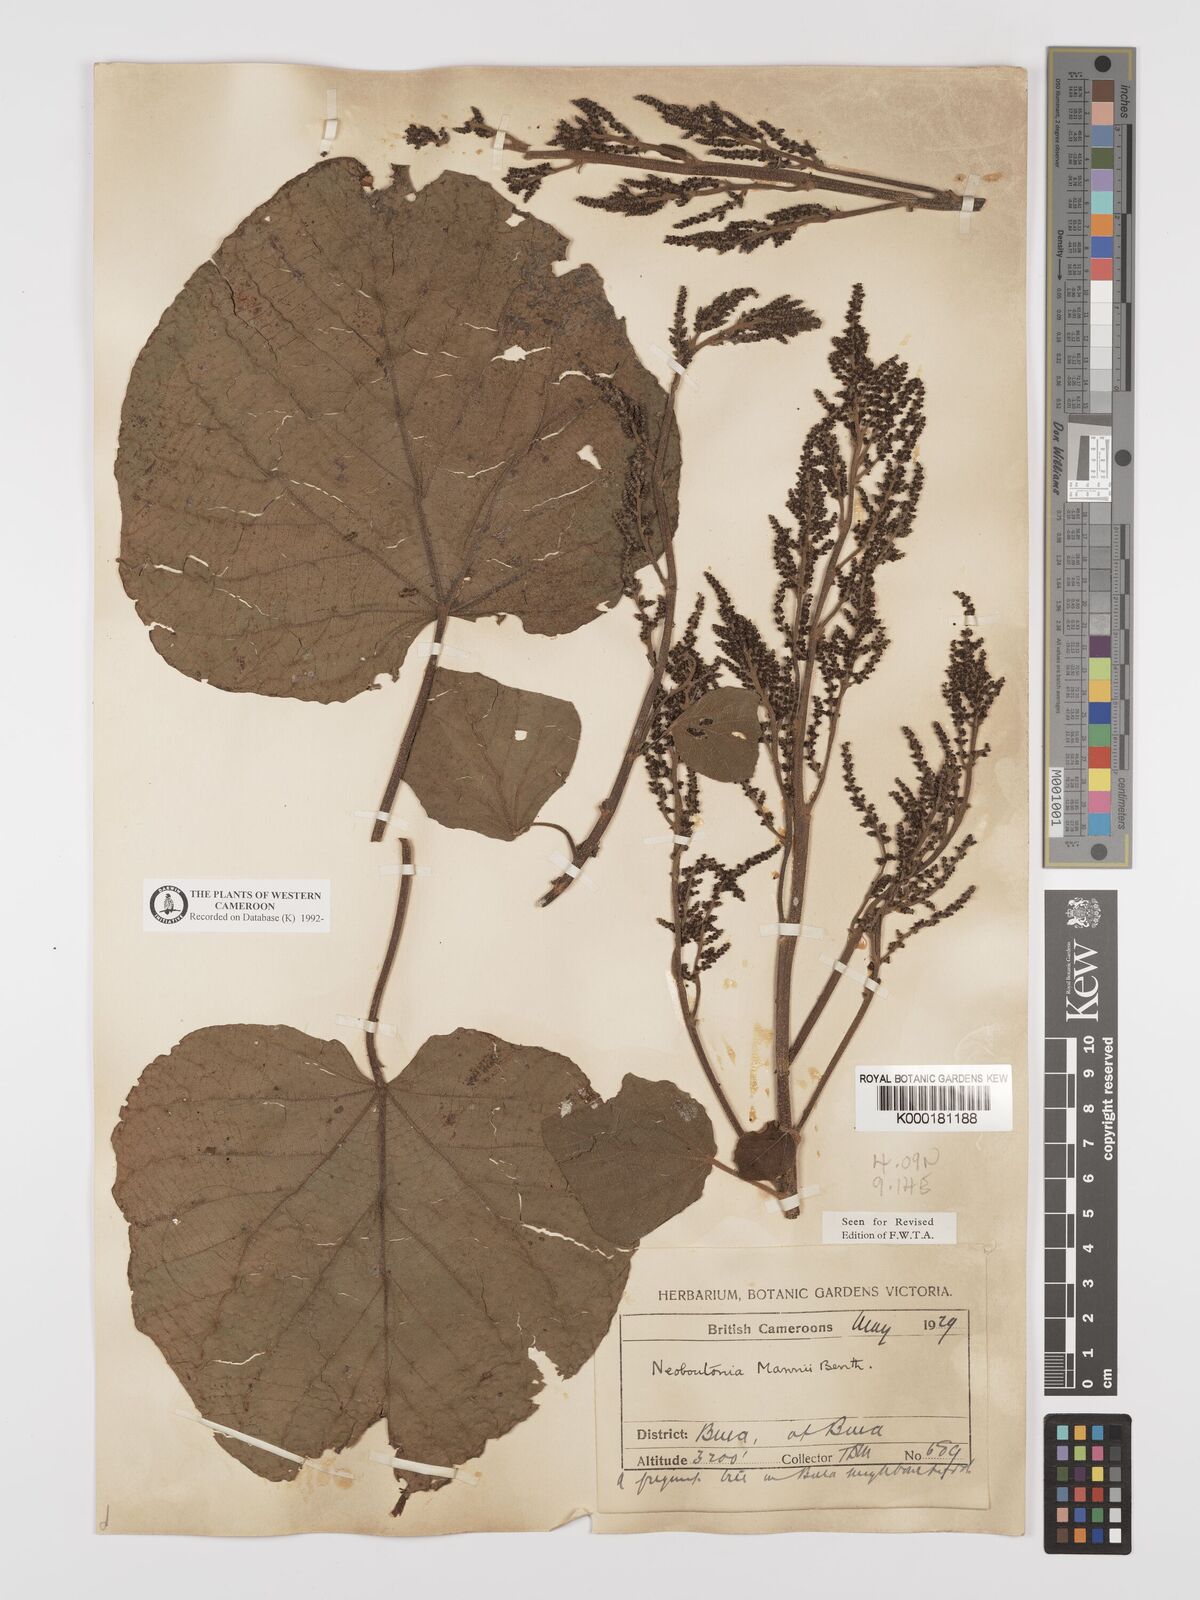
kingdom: Plantae
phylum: Tracheophyta
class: Magnoliopsida
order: Malpighiales
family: Euphorbiaceae
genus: Neoboutonia
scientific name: Neoboutonia mannii
